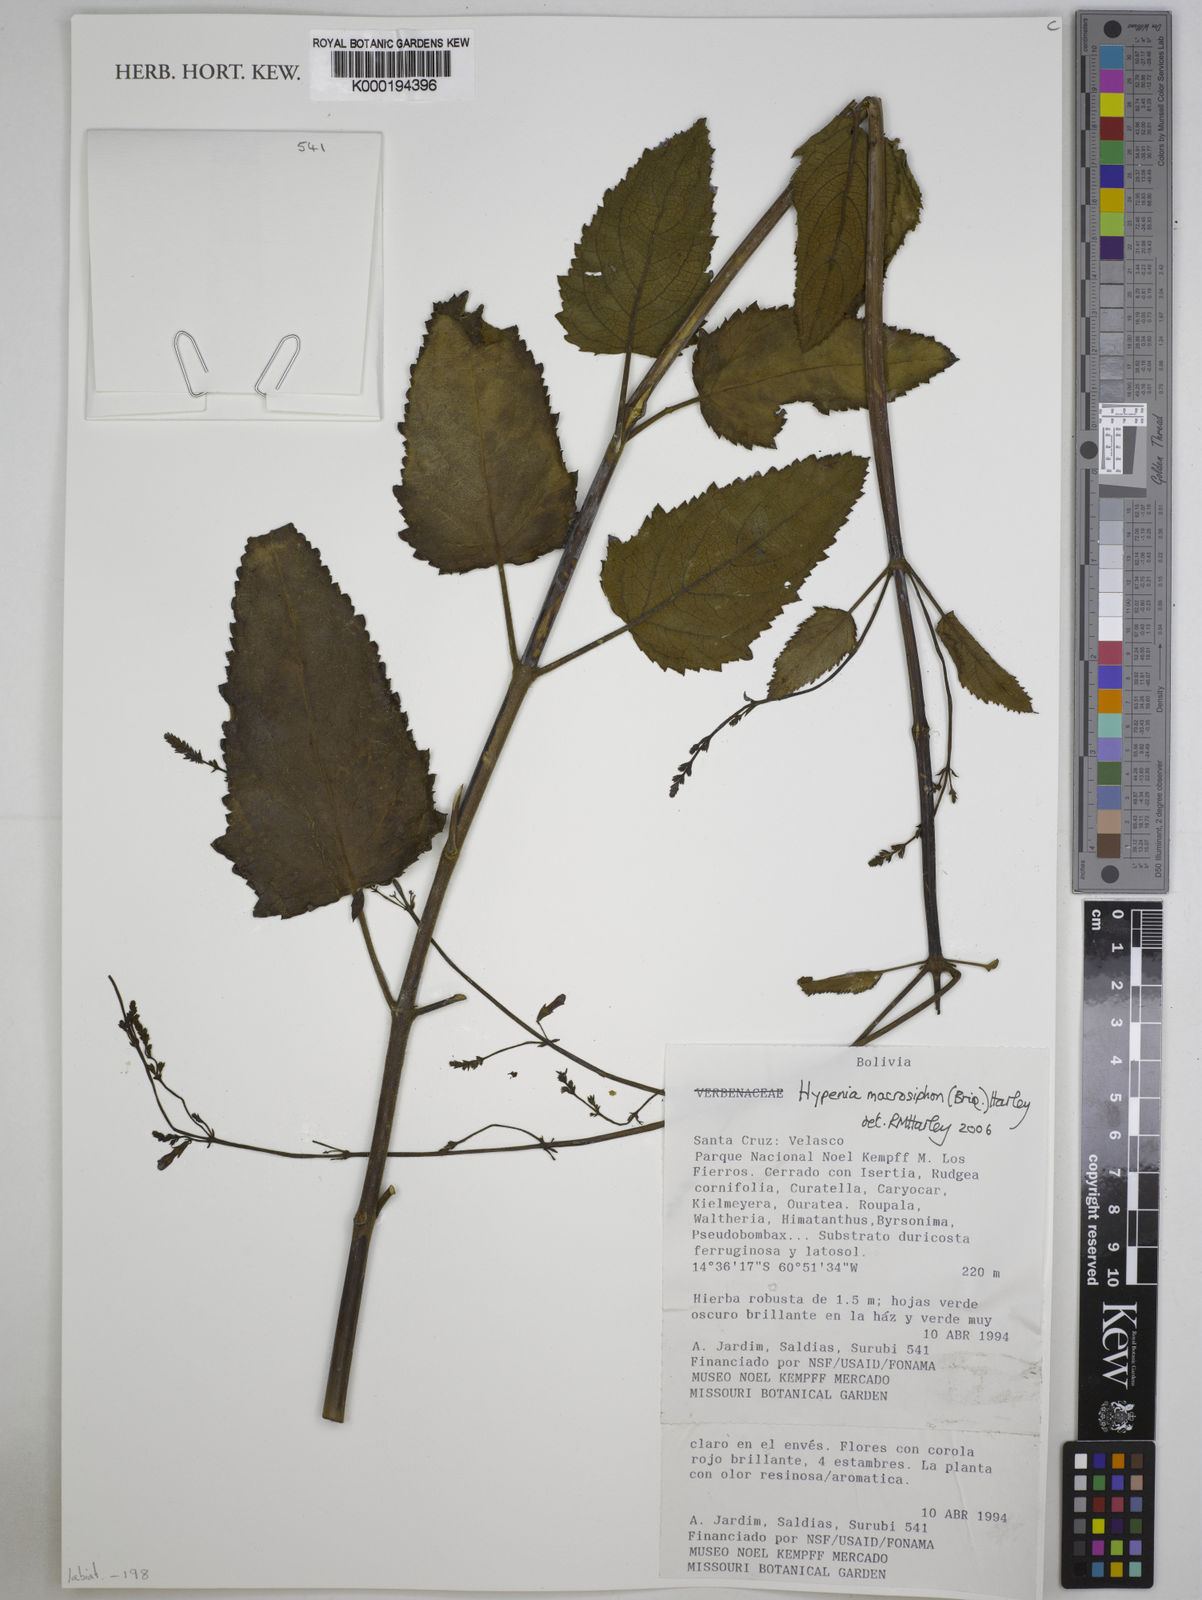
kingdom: Plantae
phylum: Tracheophyta
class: Magnoliopsida
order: Lamiales
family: Lamiaceae
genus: Hypenia
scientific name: Hypenia macrosiphon
